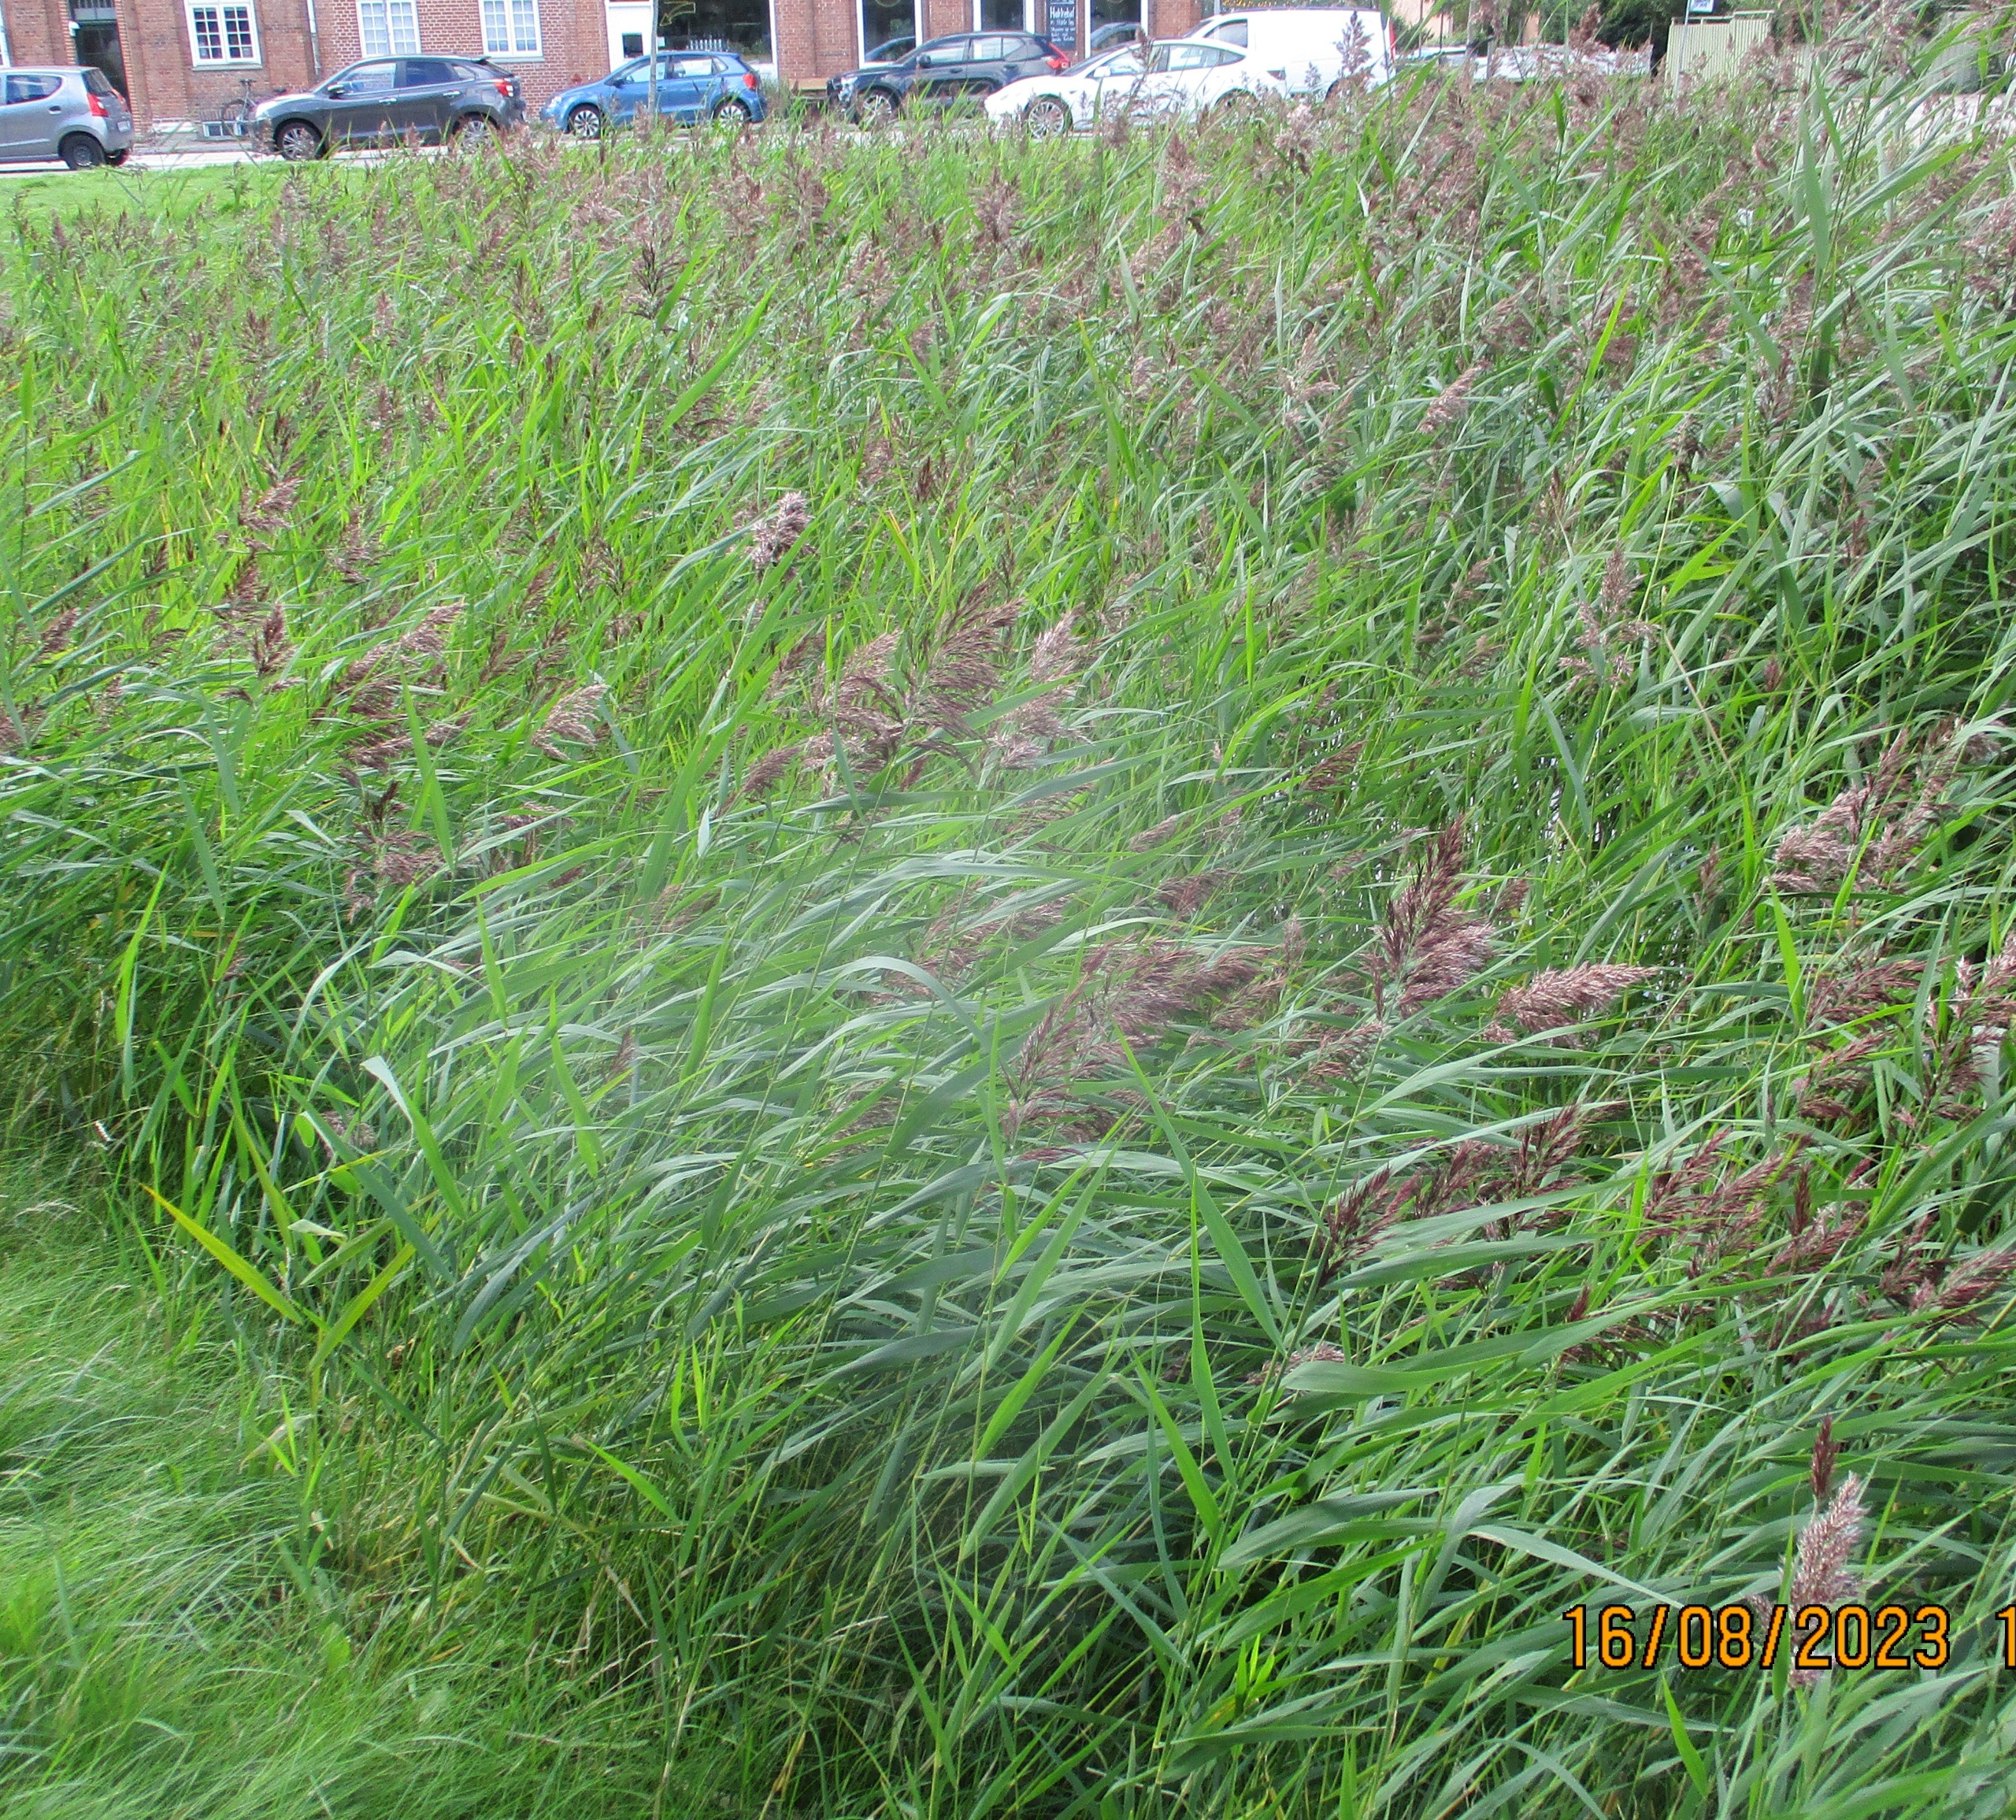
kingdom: Plantae
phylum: Tracheophyta
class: Liliopsida
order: Poales
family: Poaceae
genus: Phragmites
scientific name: Phragmites australis
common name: Tagrør
